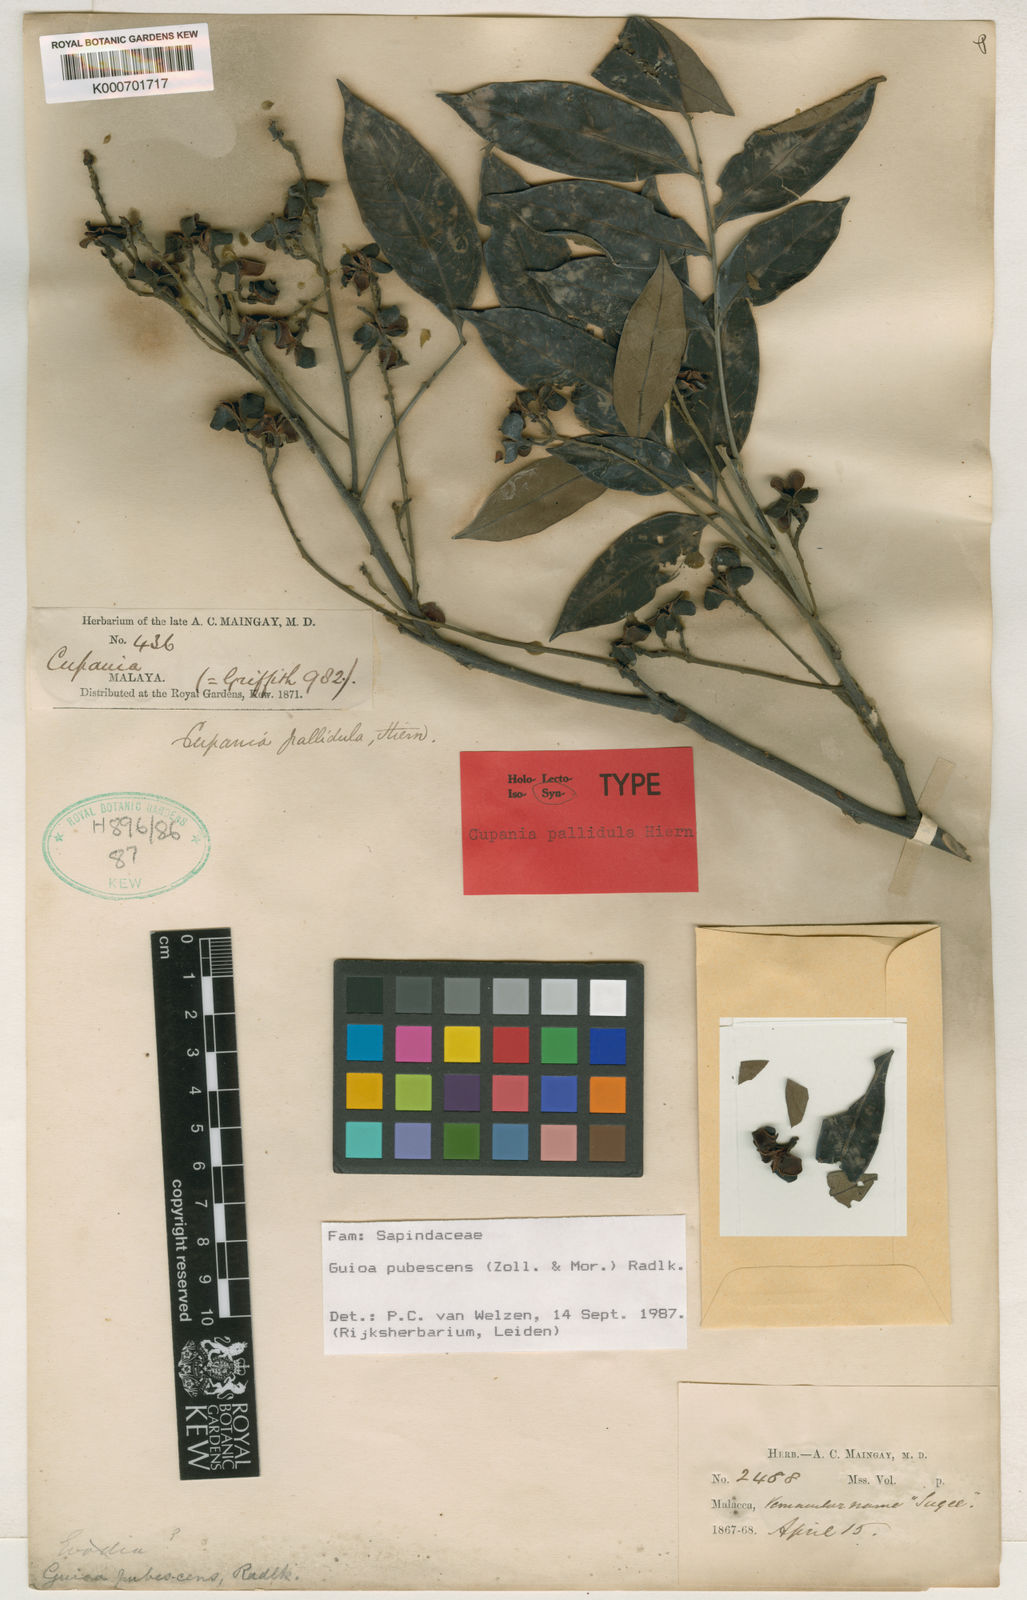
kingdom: Plantae
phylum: Tracheophyta
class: Magnoliopsida
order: Sapindales
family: Sapindaceae
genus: Guioa
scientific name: Guioa pubescens
